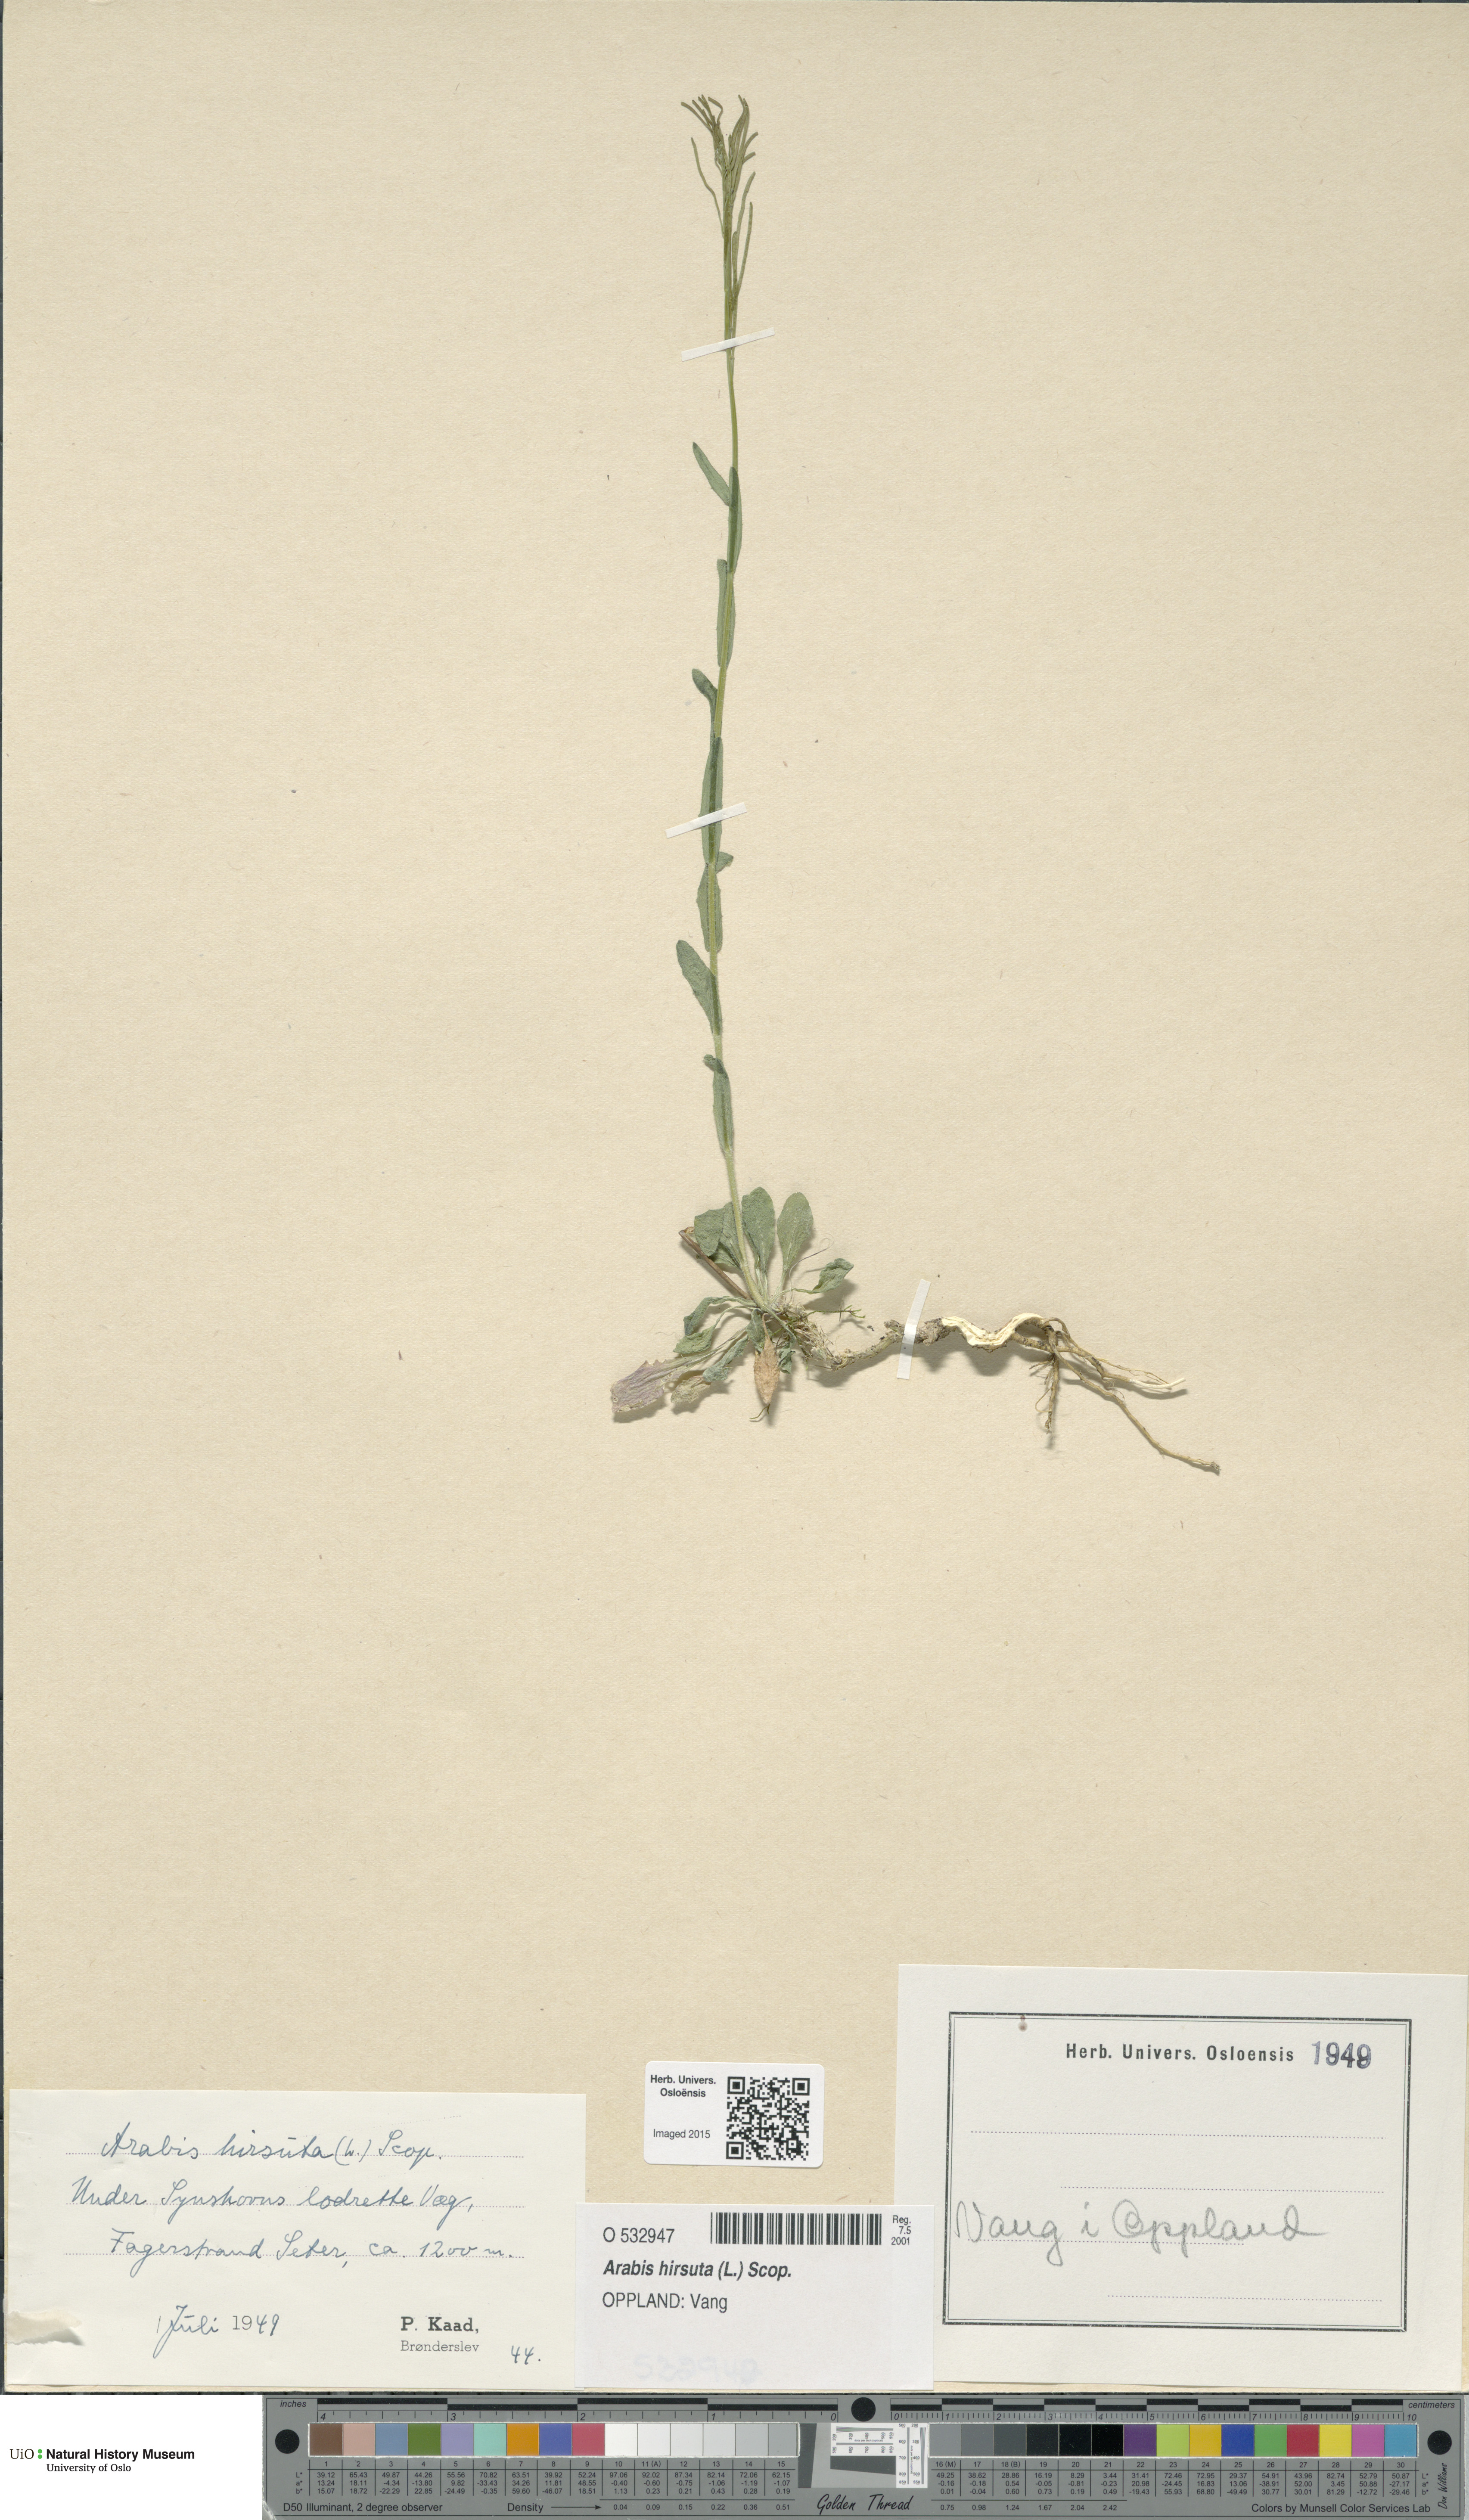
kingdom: Plantae
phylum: Tracheophyta
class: Magnoliopsida
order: Brassicales
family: Brassicaceae
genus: Arabis
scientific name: Arabis hirsuta
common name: Hairy rock-cress
